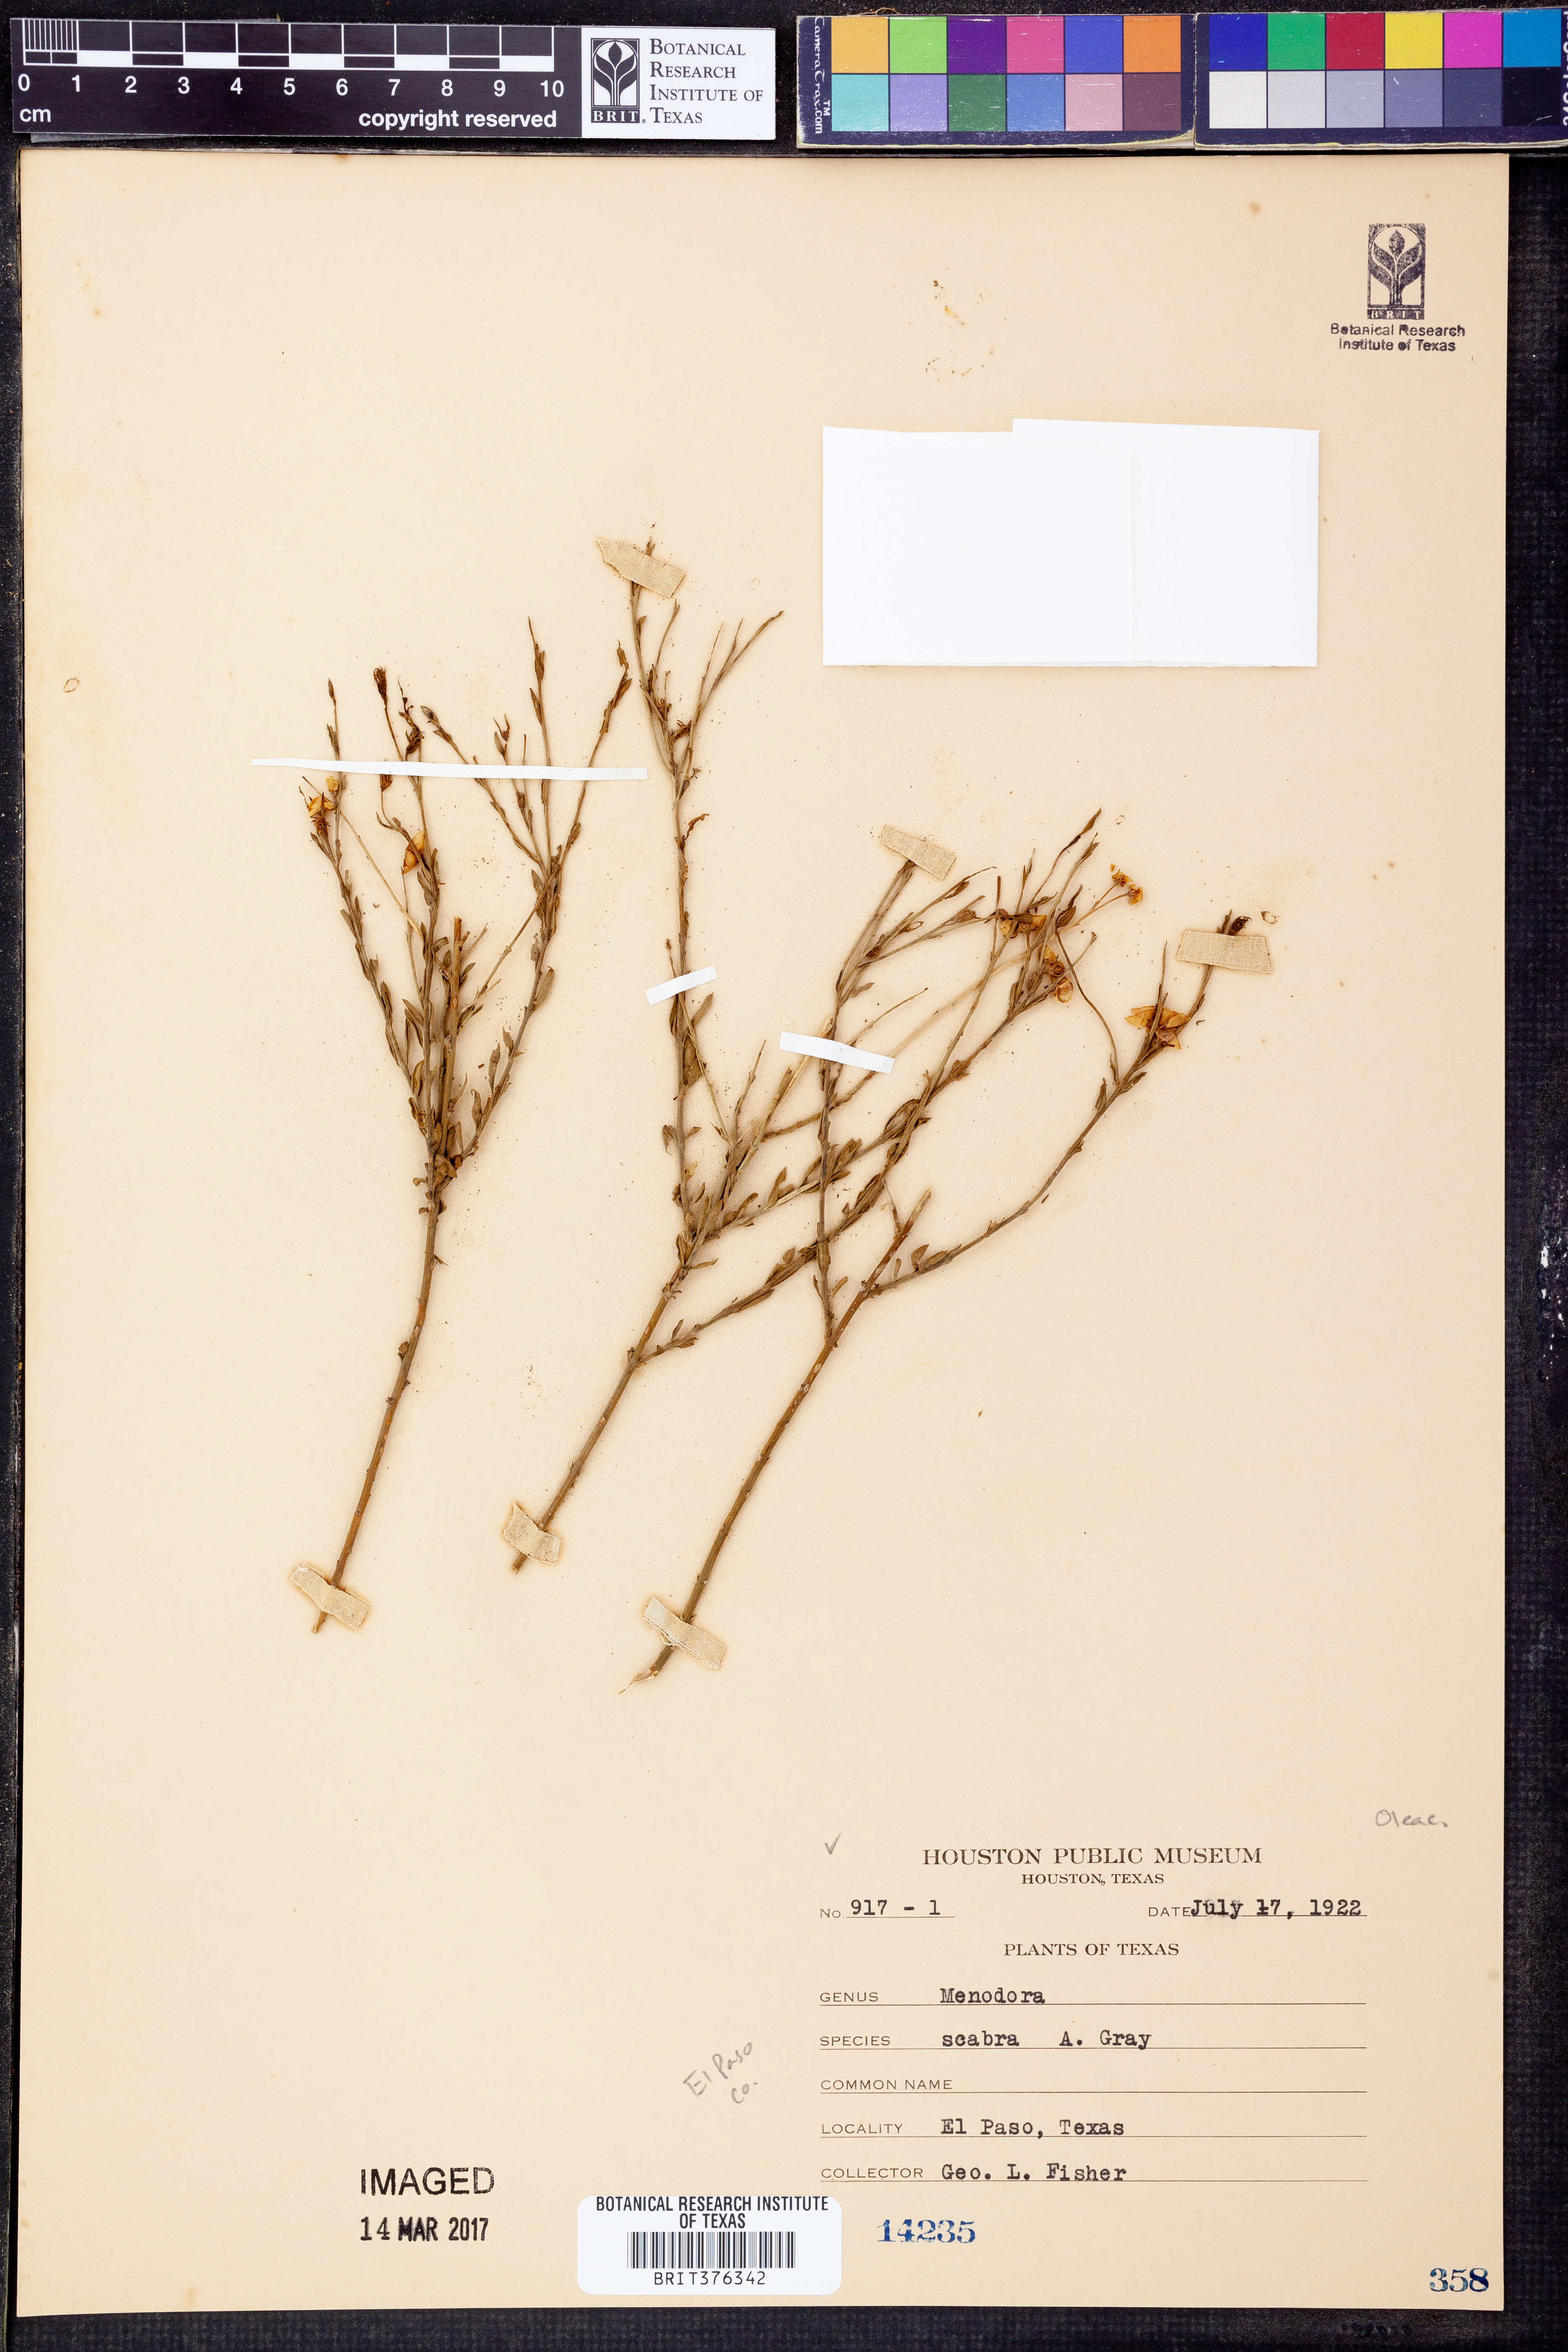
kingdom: Plantae
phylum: Tracheophyta
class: Magnoliopsida
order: Lamiales
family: Oleaceae
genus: Menodora
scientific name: Menodora scabra
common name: Rough menodora
